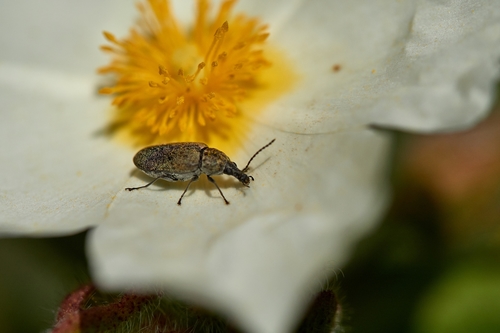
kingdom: Animalia
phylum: Arthropoda
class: Insecta
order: Coleoptera
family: Mycteridae
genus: Mycterus
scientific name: Mycterus curculioides
